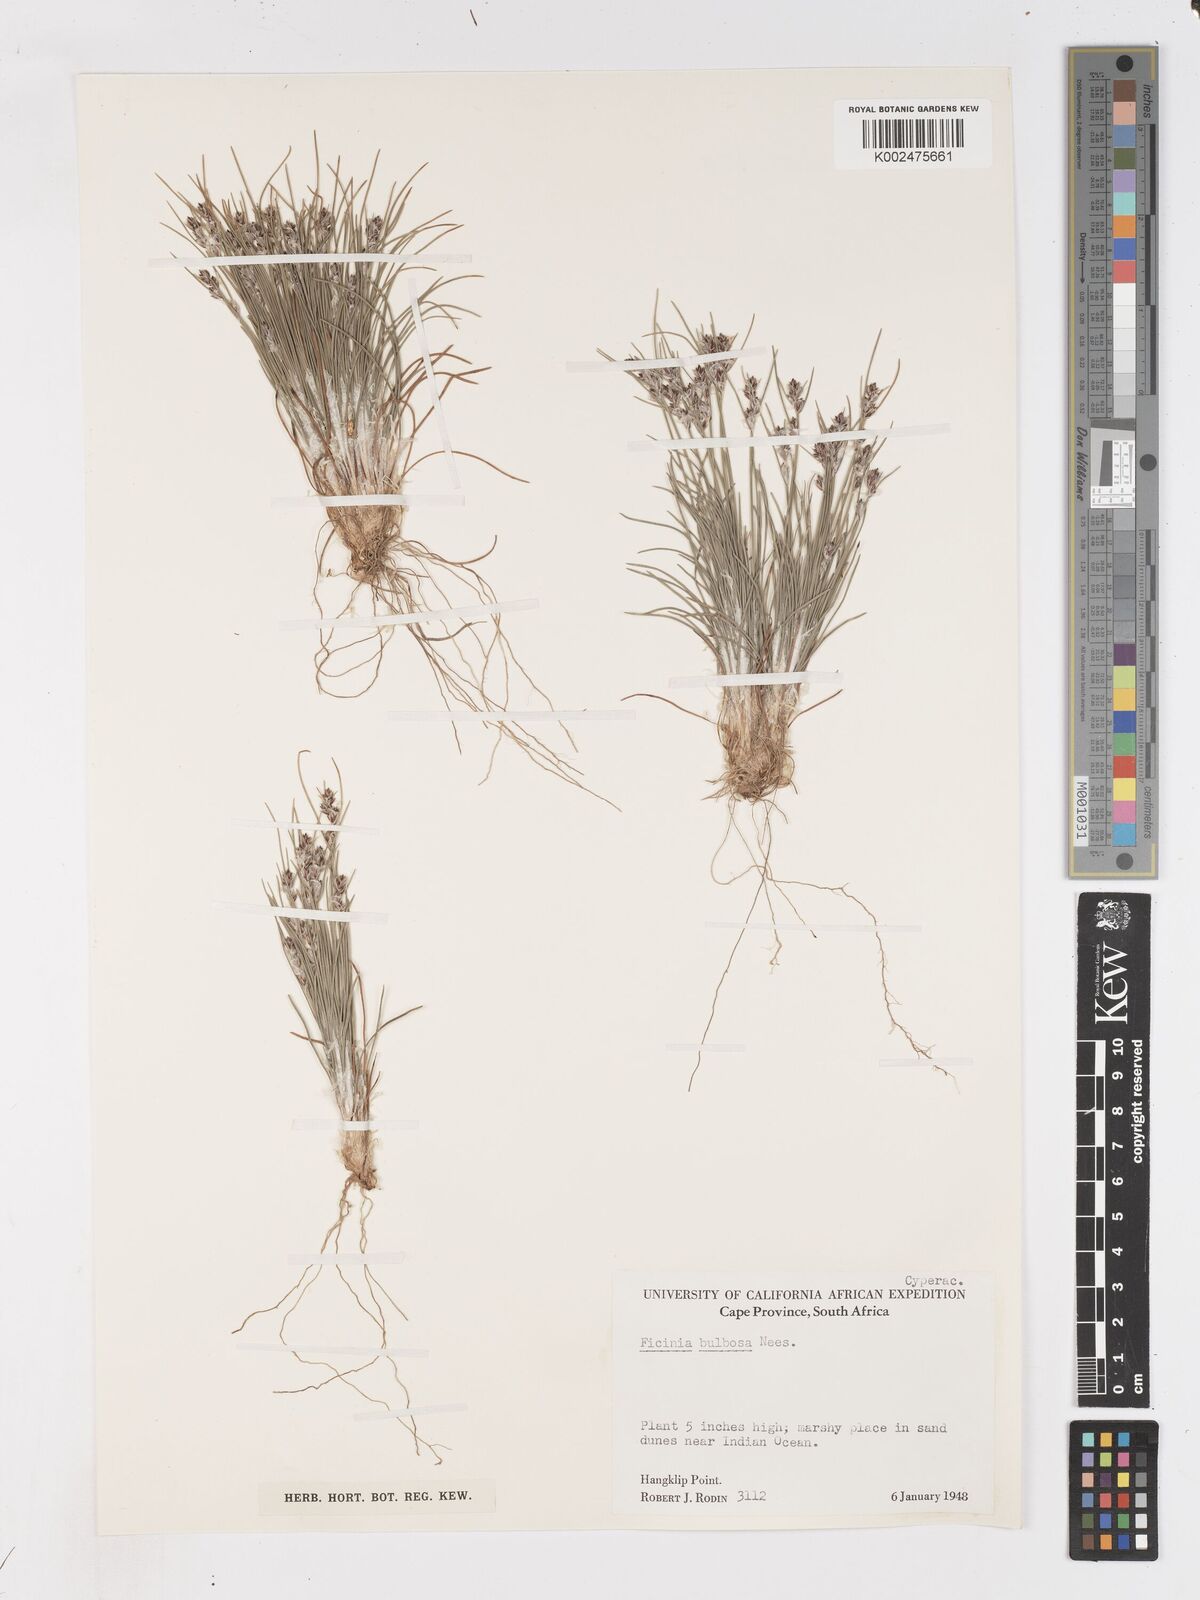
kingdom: Plantae
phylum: Tracheophyta
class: Liliopsida
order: Poales
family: Cyperaceae
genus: Ficinia
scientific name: Ficinia bulbosa
